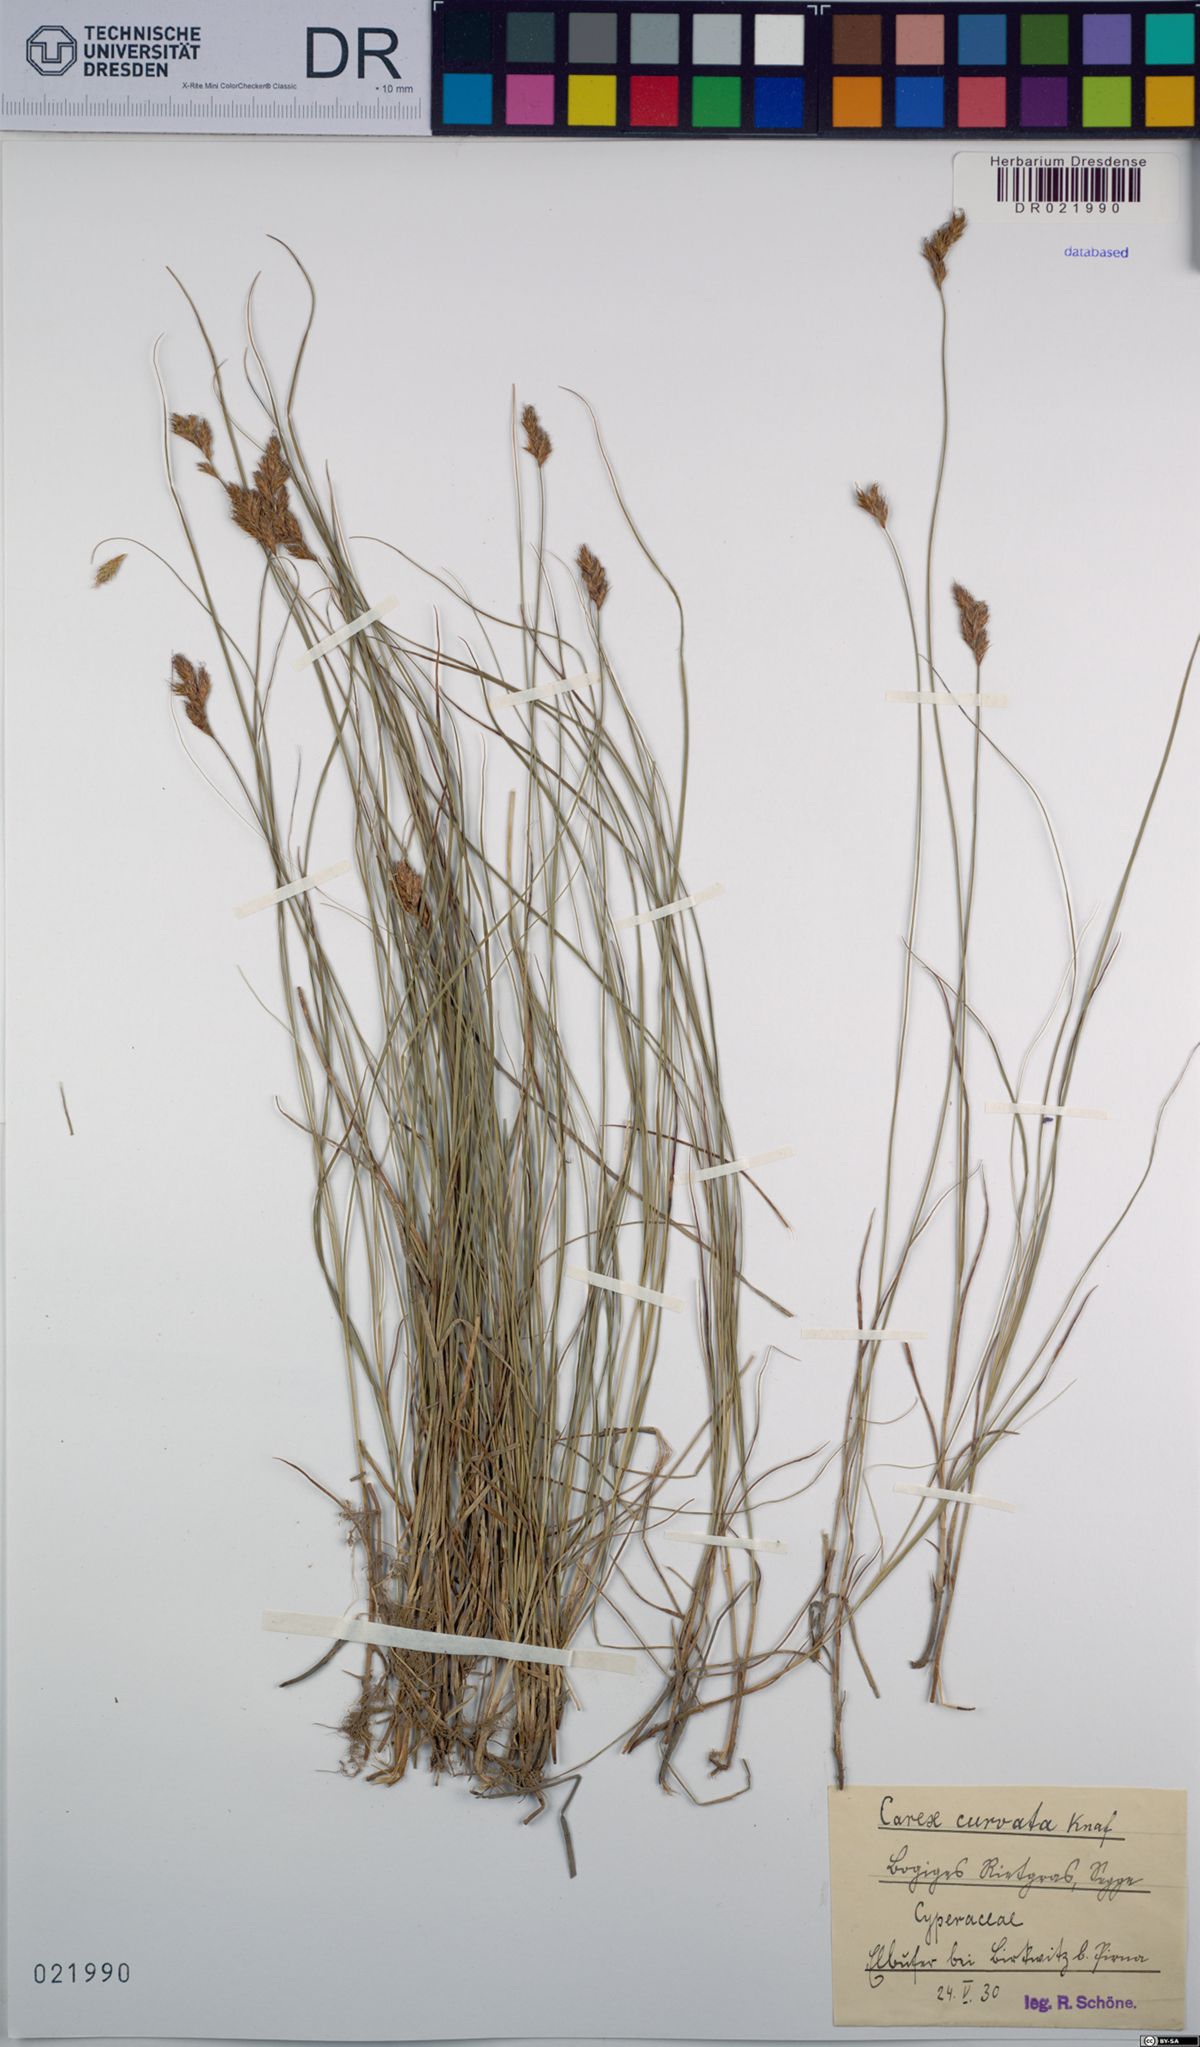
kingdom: Plantae
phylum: Tracheophyta
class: Liliopsida
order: Poales
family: Cyperaceae
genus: Carex
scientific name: Carex curvata
